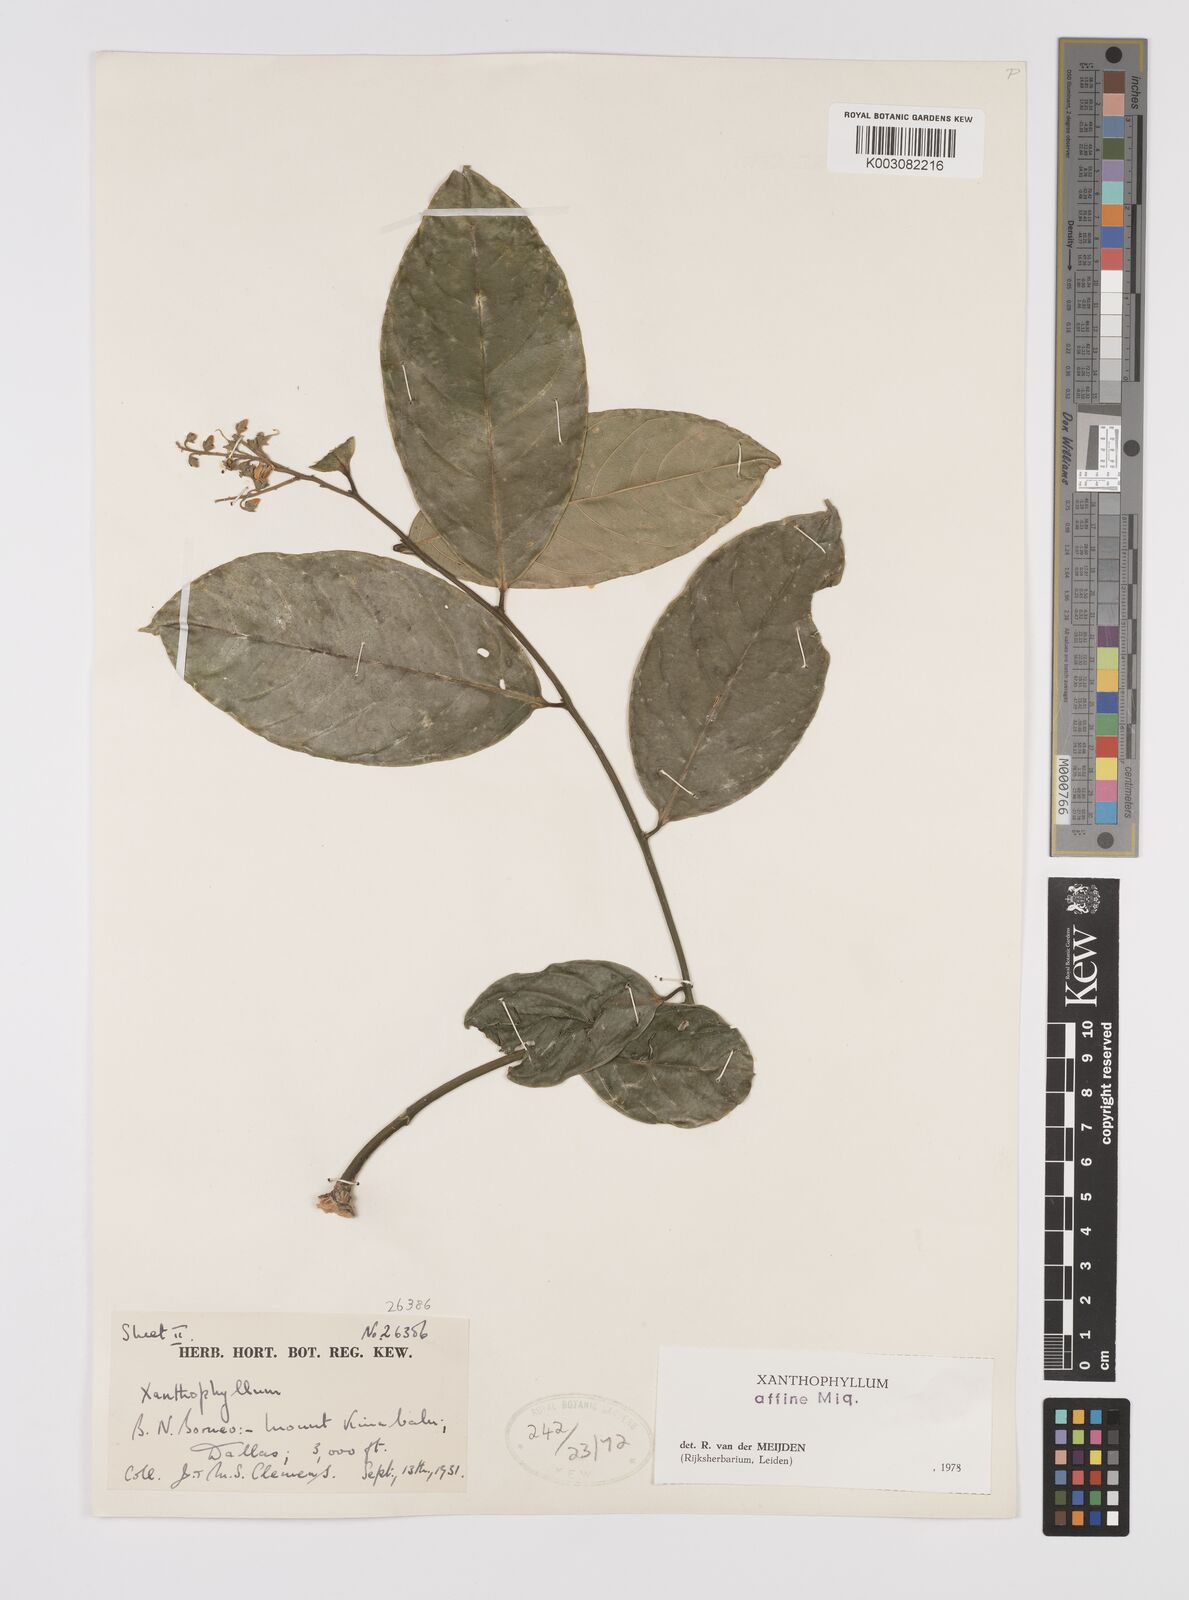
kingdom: Plantae
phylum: Tracheophyta
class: Magnoliopsida
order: Fabales
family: Polygalaceae
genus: Xanthophyllum
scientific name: Xanthophyllum flavescens
